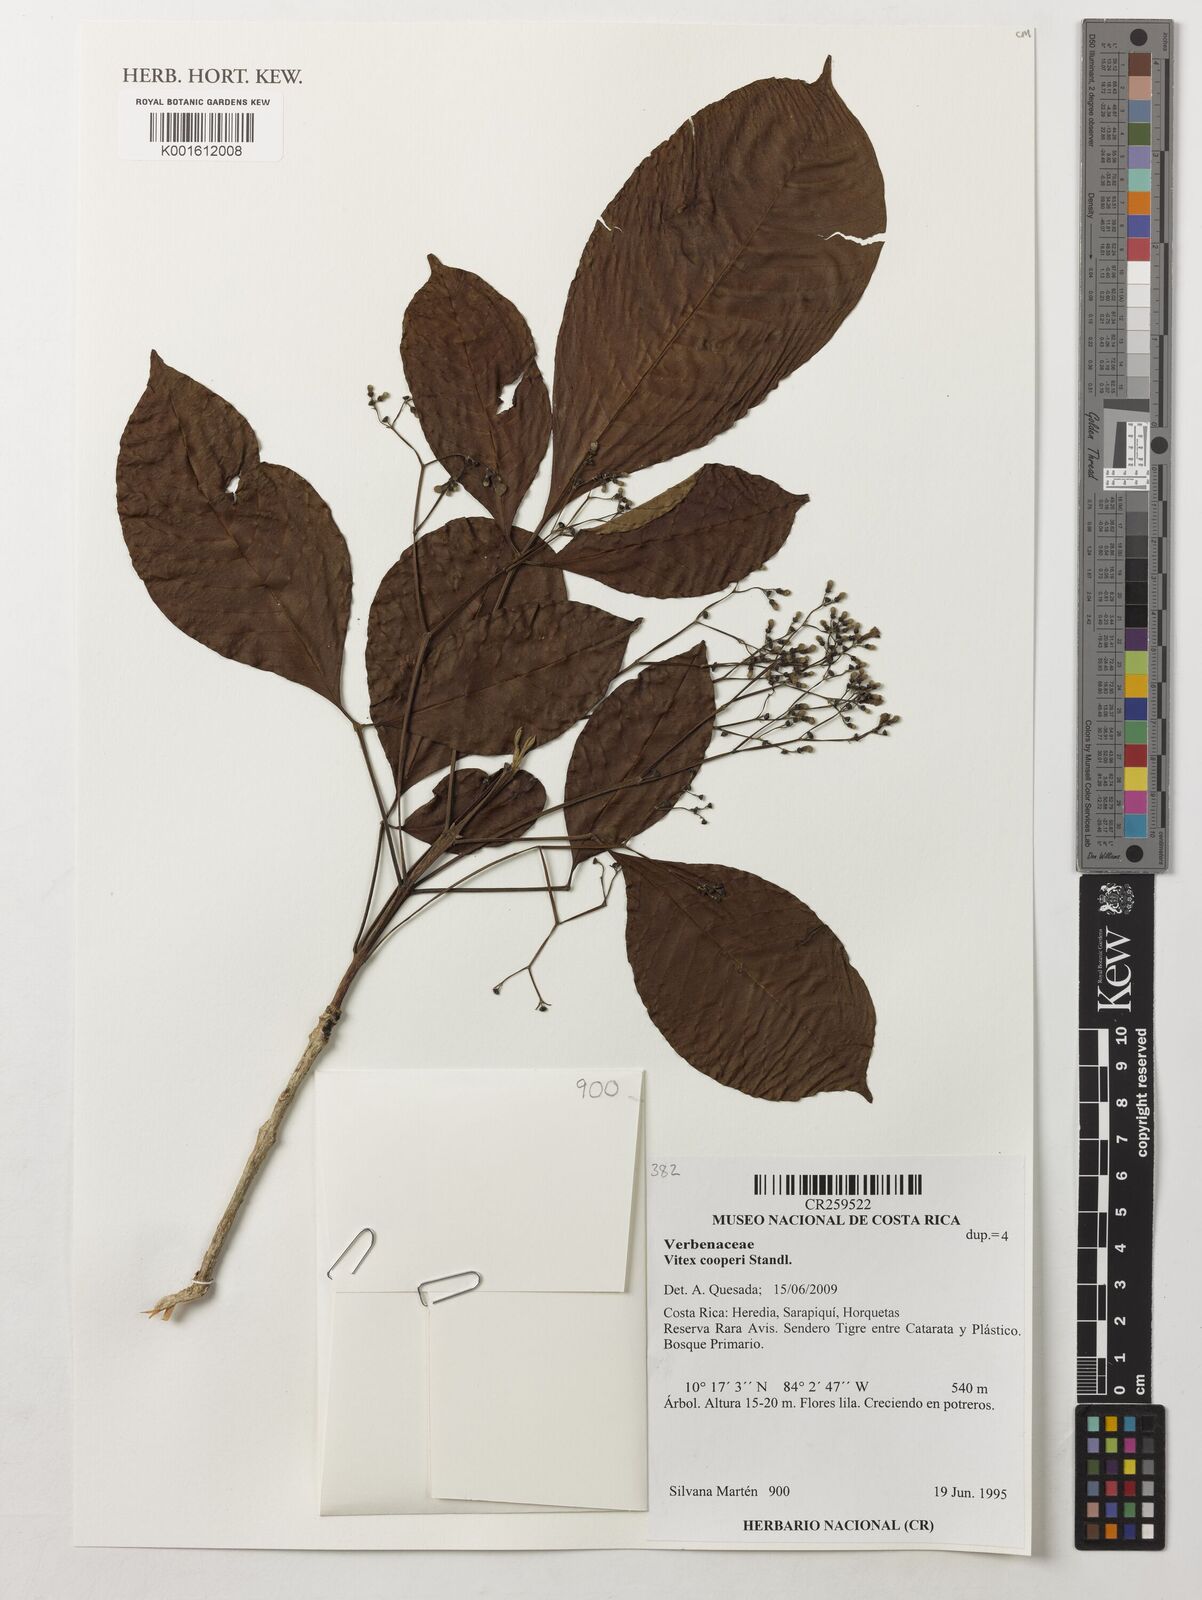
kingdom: Plantae
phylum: Tracheophyta
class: Magnoliopsida
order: Lamiales
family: Lamiaceae
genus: Vitex
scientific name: Vitex cooperi
